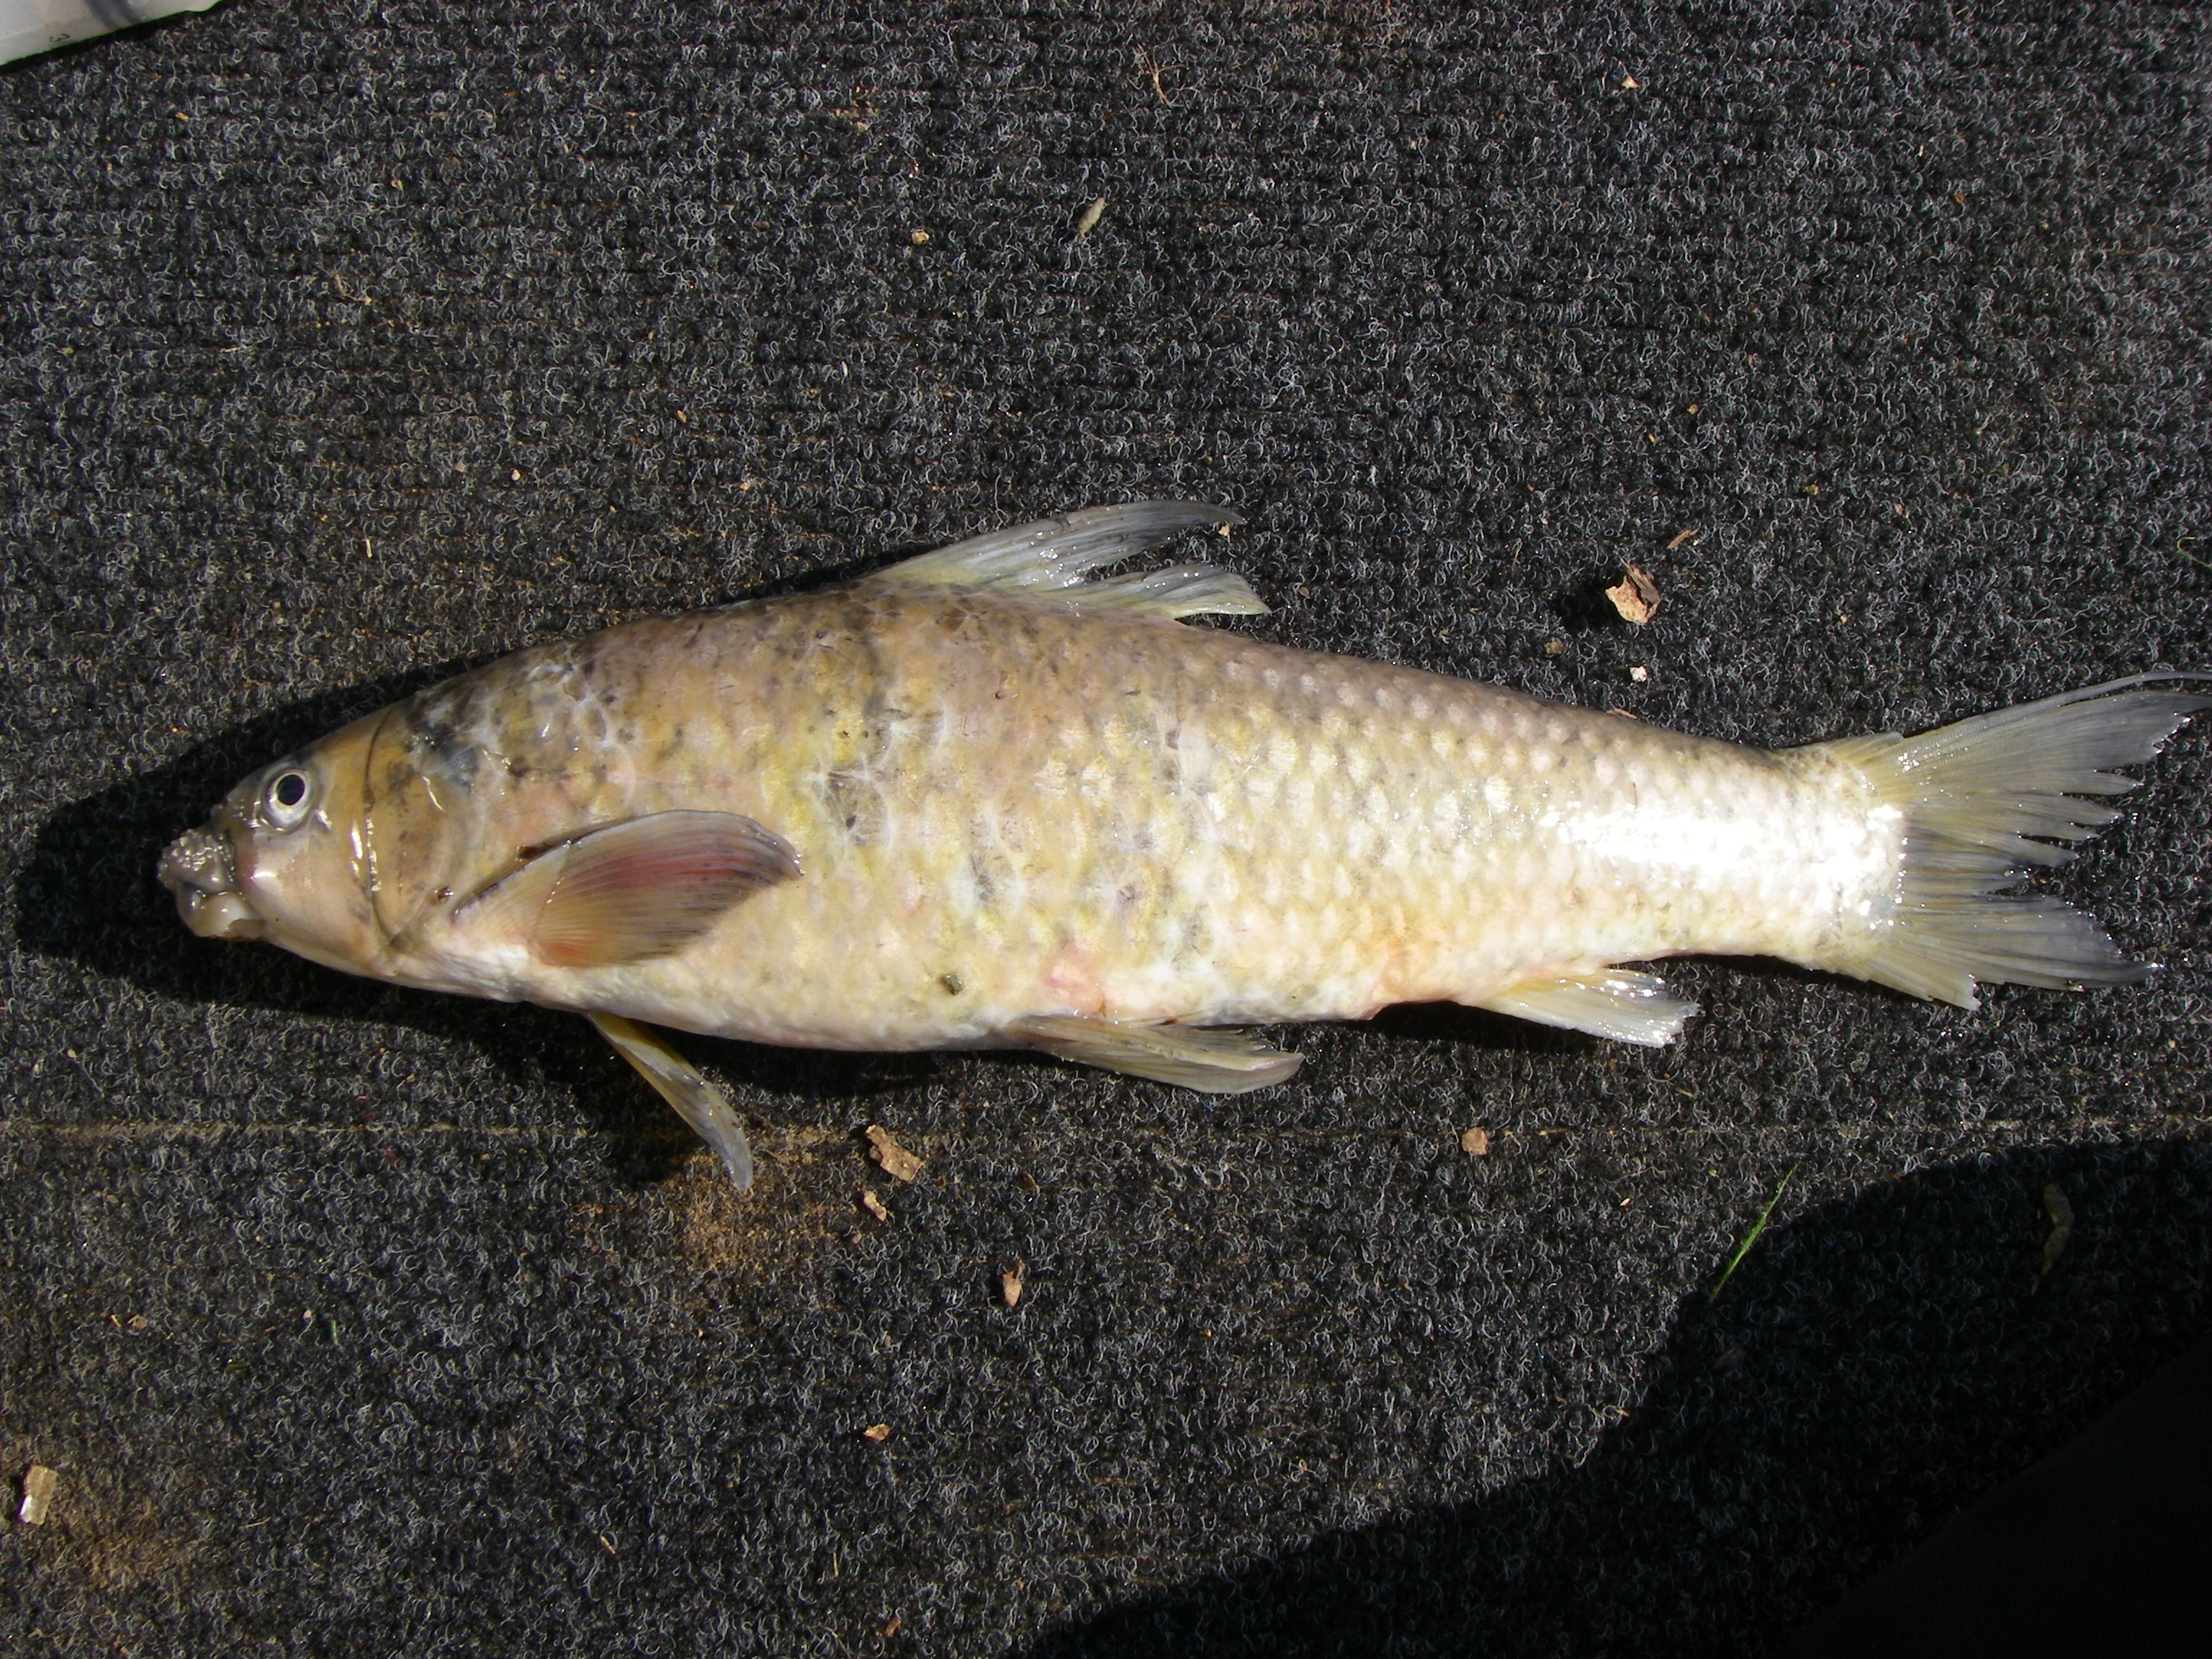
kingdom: Animalia
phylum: Chordata
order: Cypriniformes
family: Cyprinidae
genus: Labeo
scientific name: Labeo molybdinus
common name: Leaden labeo
